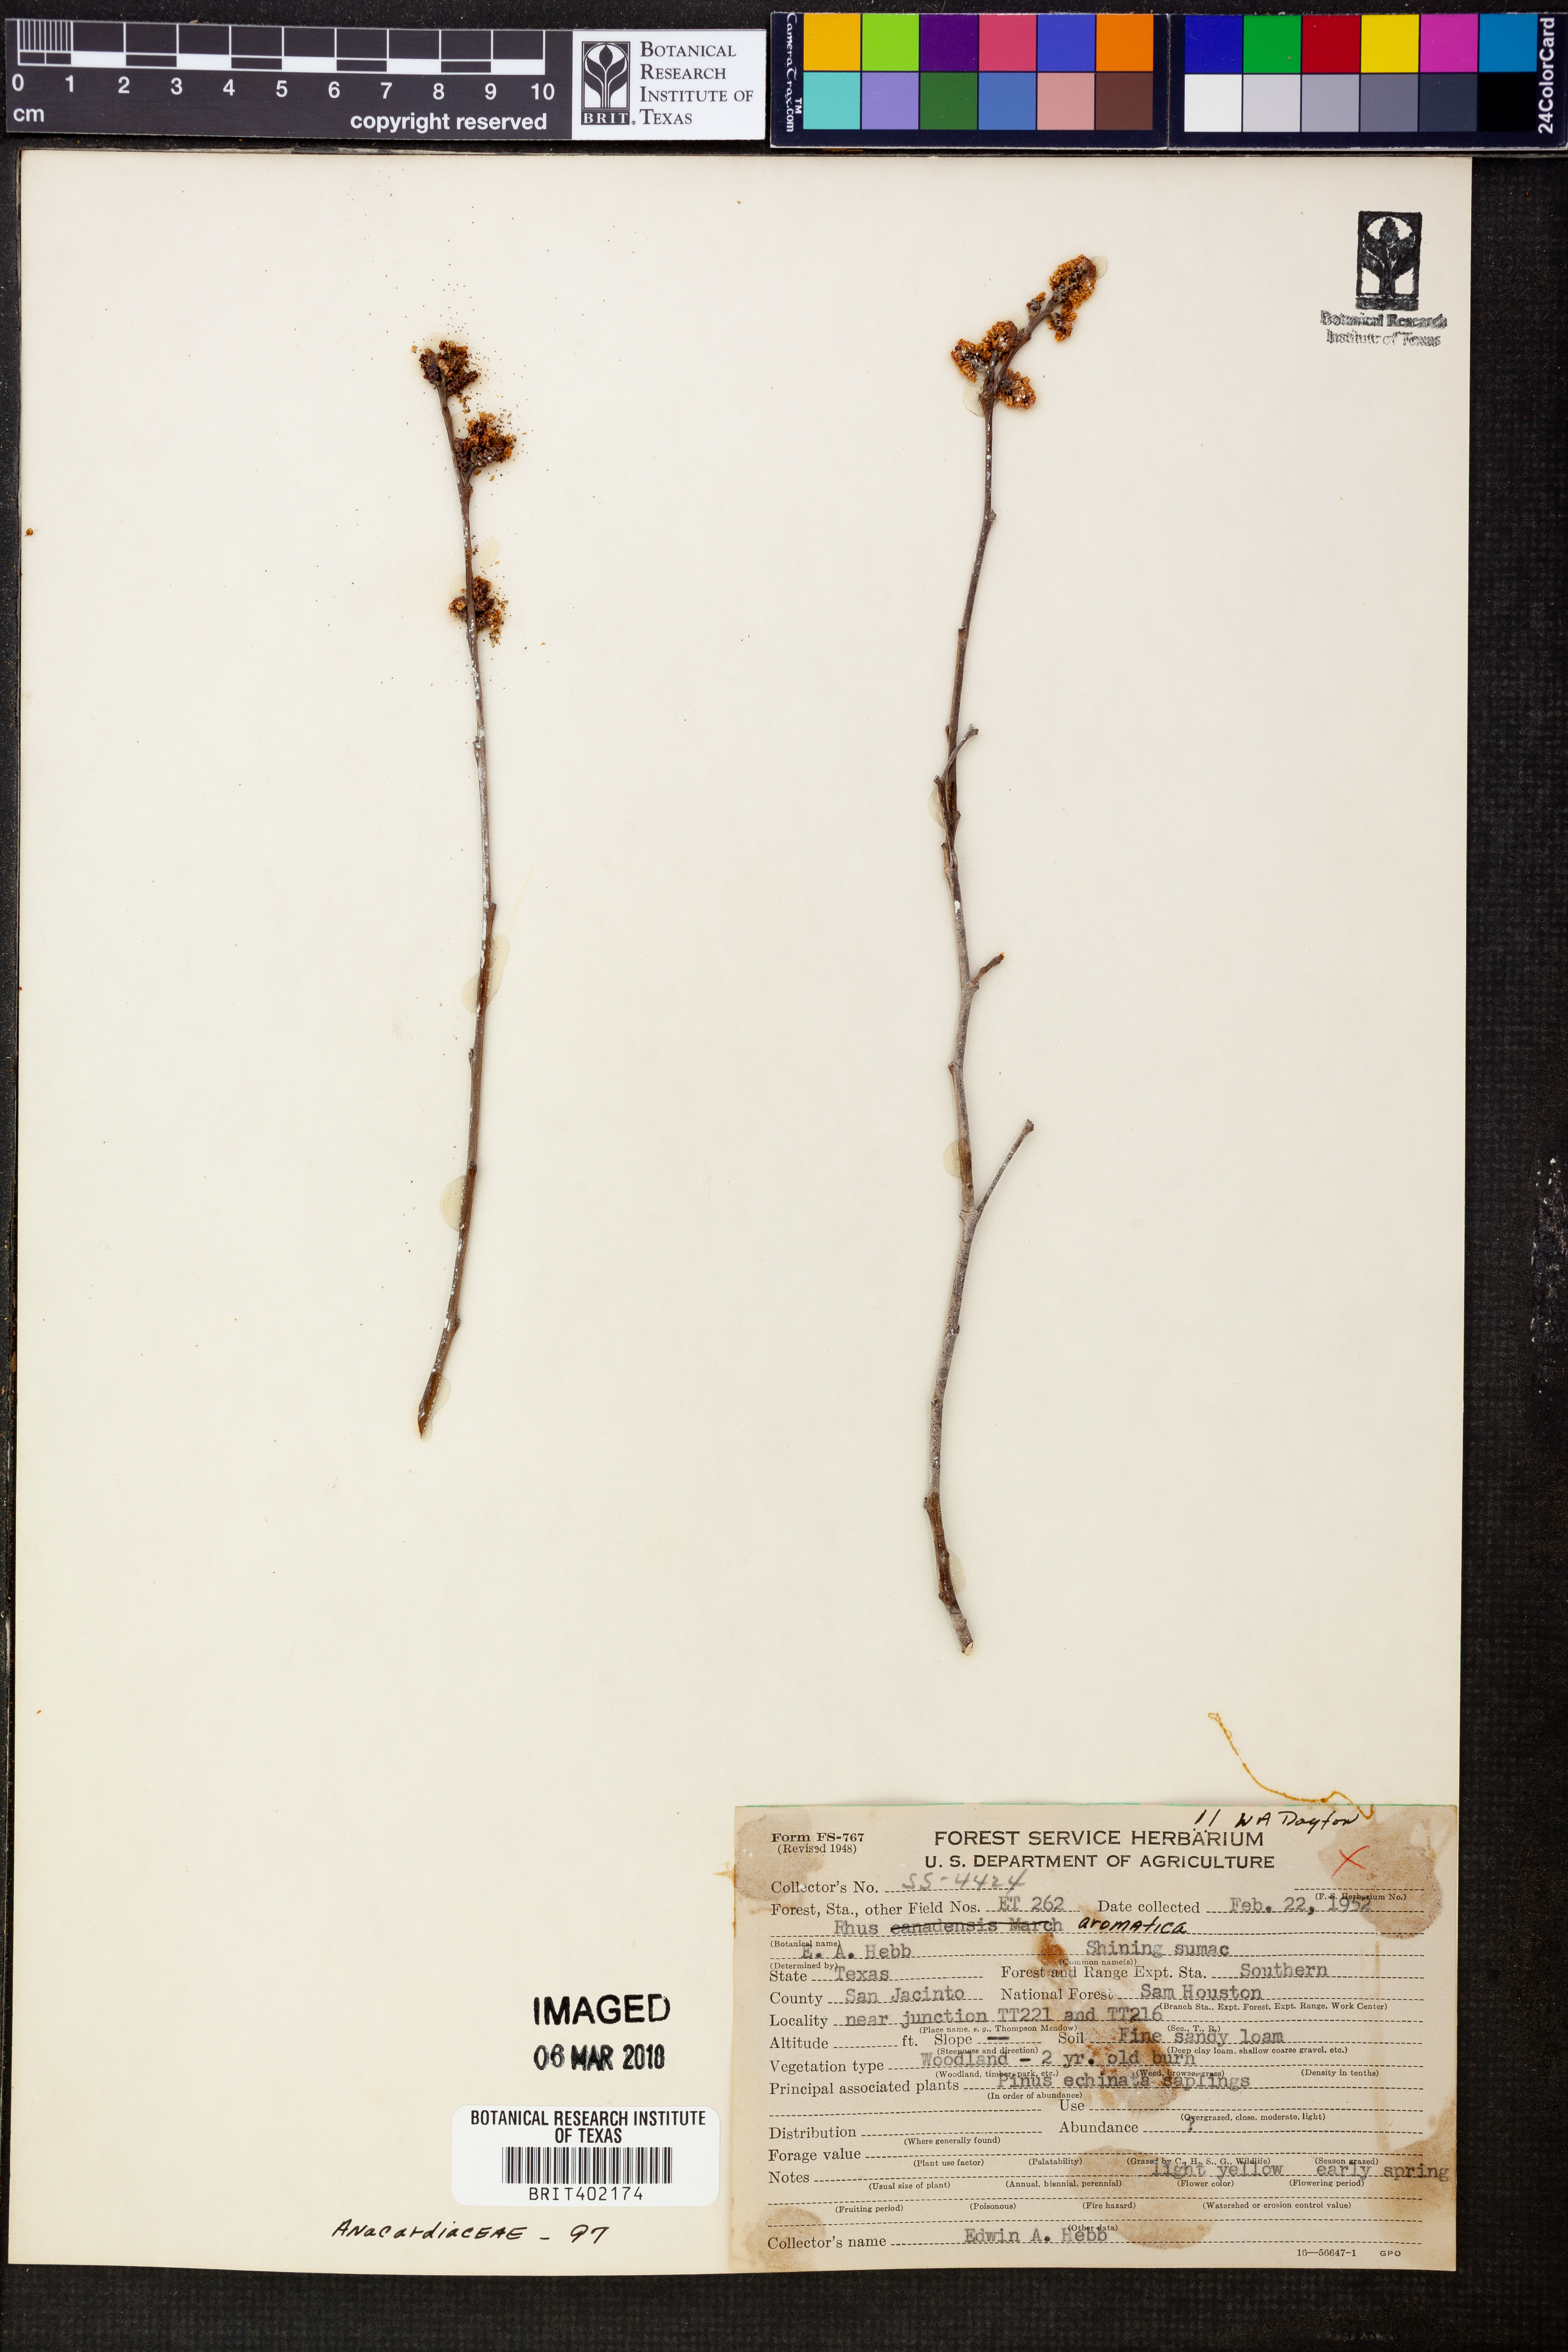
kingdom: Plantae
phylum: Tracheophyta
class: Magnoliopsida
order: Sapindales
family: Anacardiaceae
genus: Rhus
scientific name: Rhus aromatica
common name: Aromatic sumac
